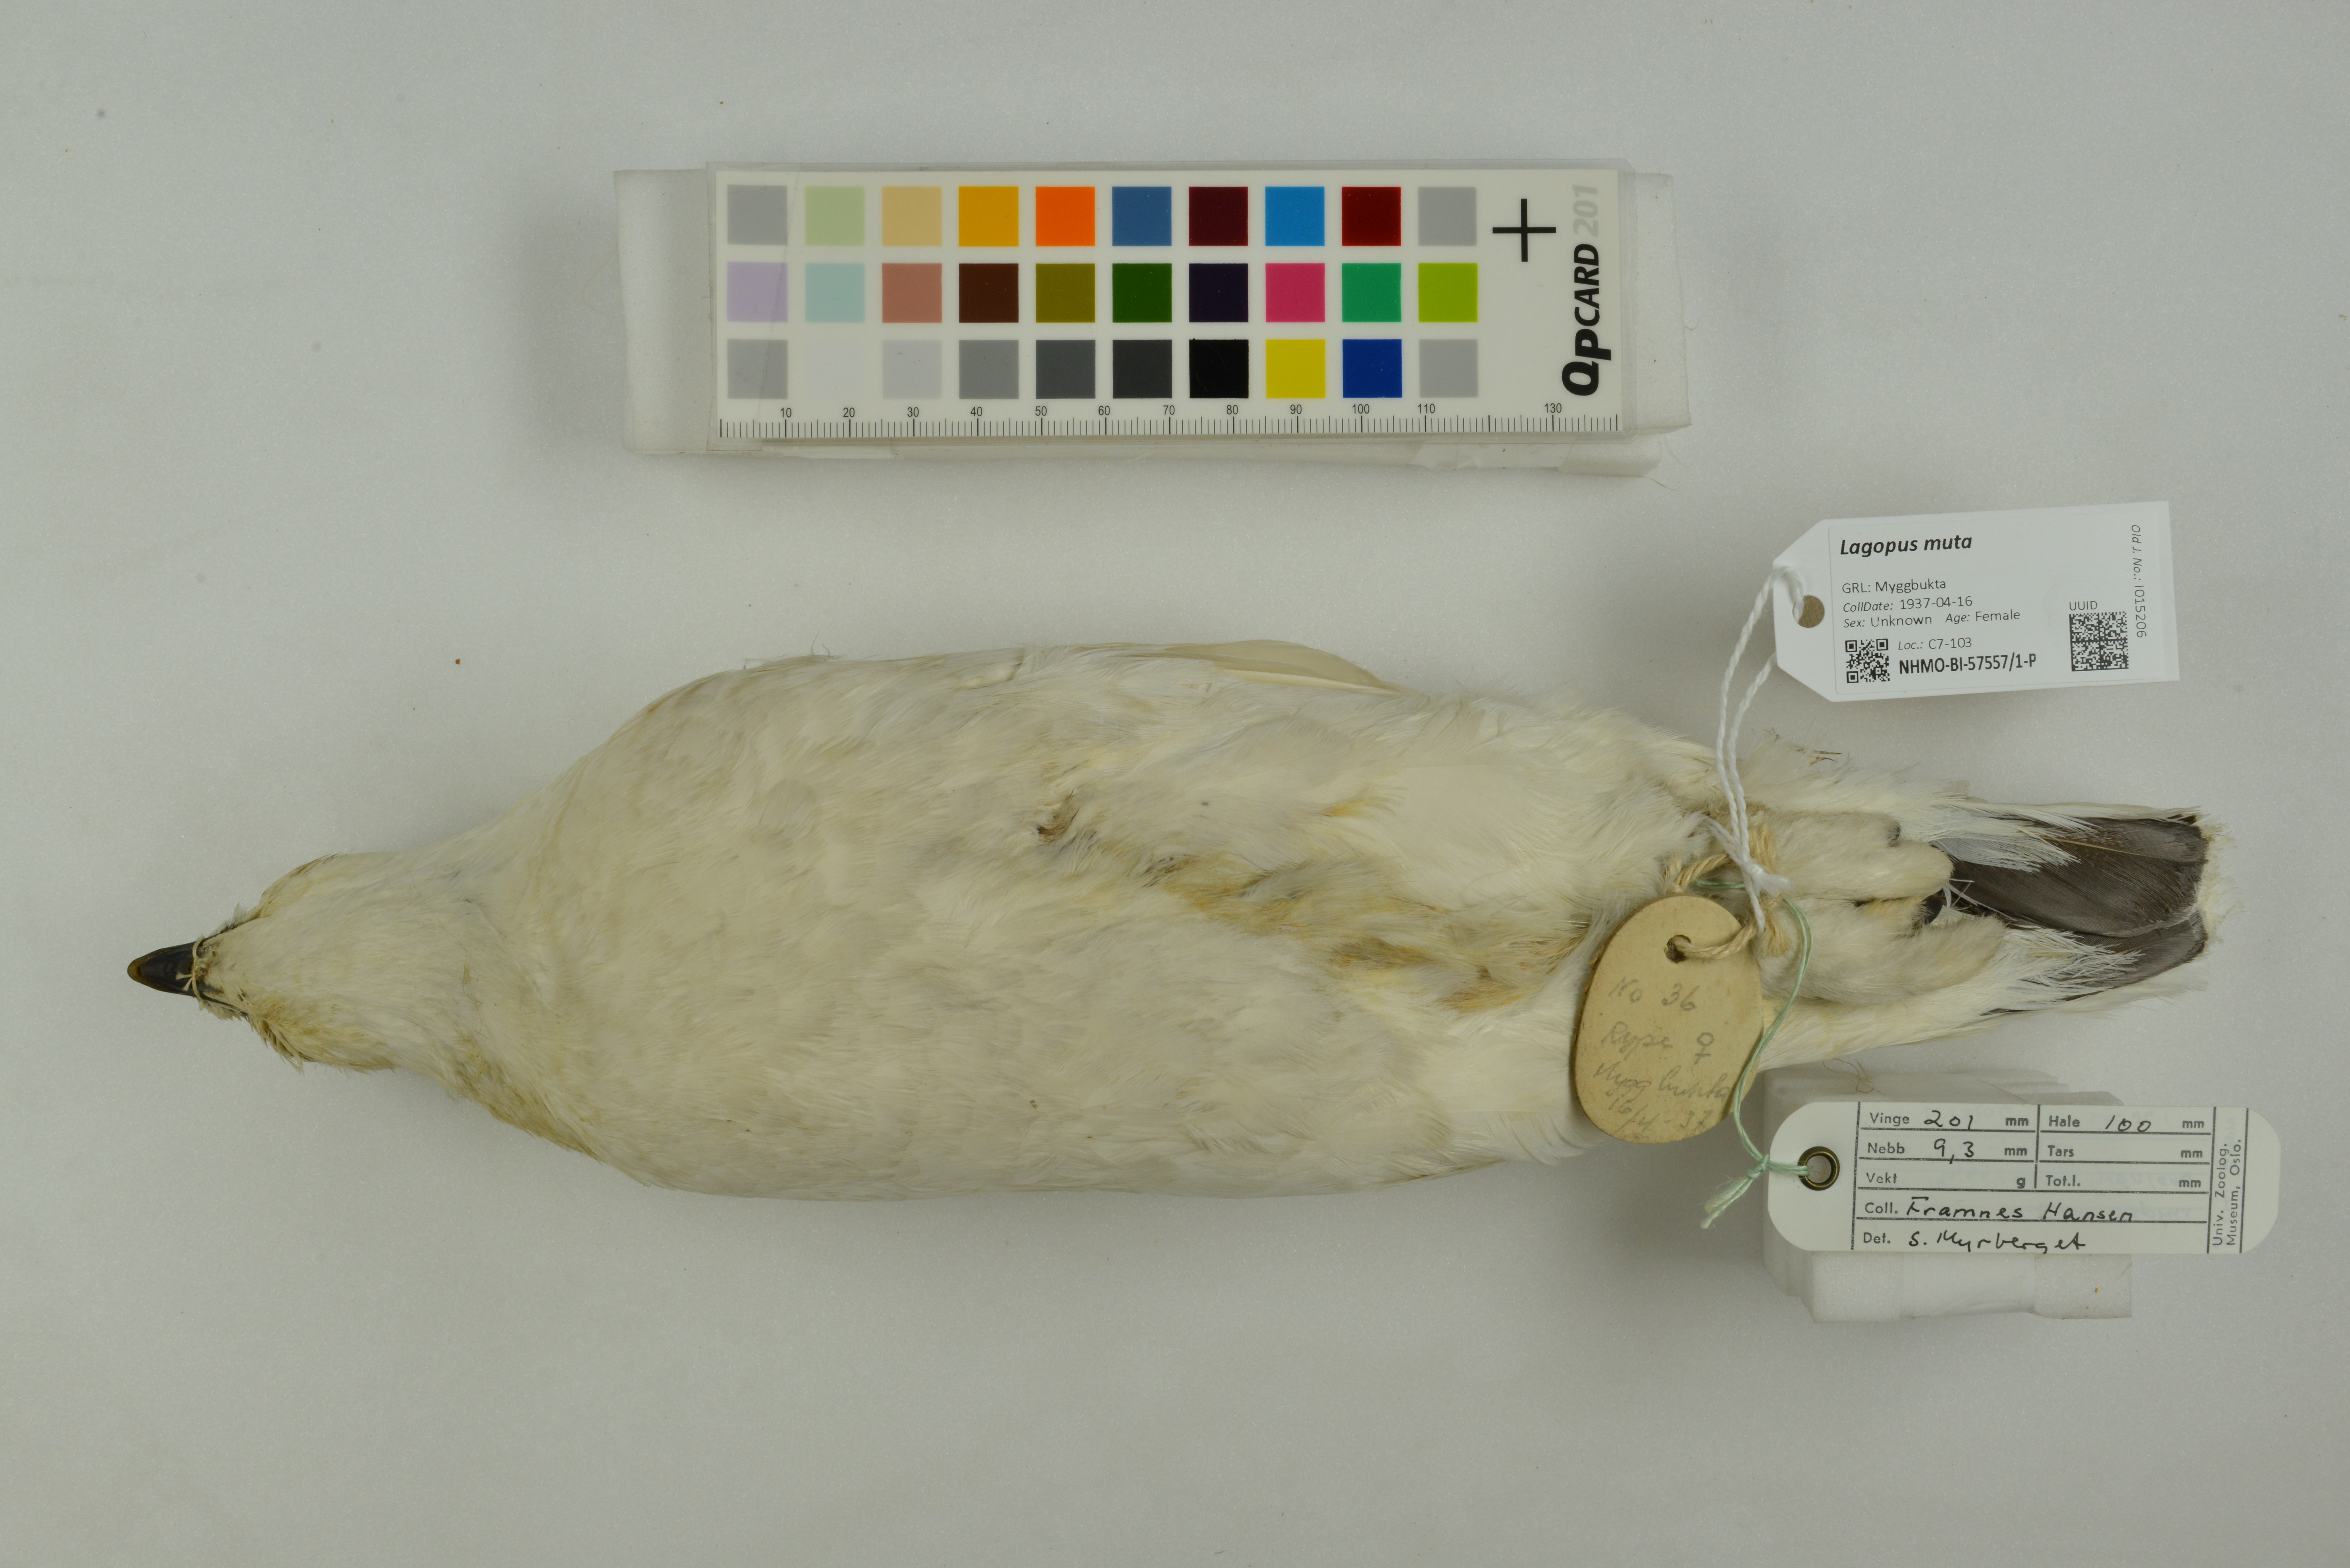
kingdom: Animalia
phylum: Chordata
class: Aves
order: Galliformes
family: Phasianidae
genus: Lagopus
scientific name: Lagopus muta
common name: Rock ptarmigan
